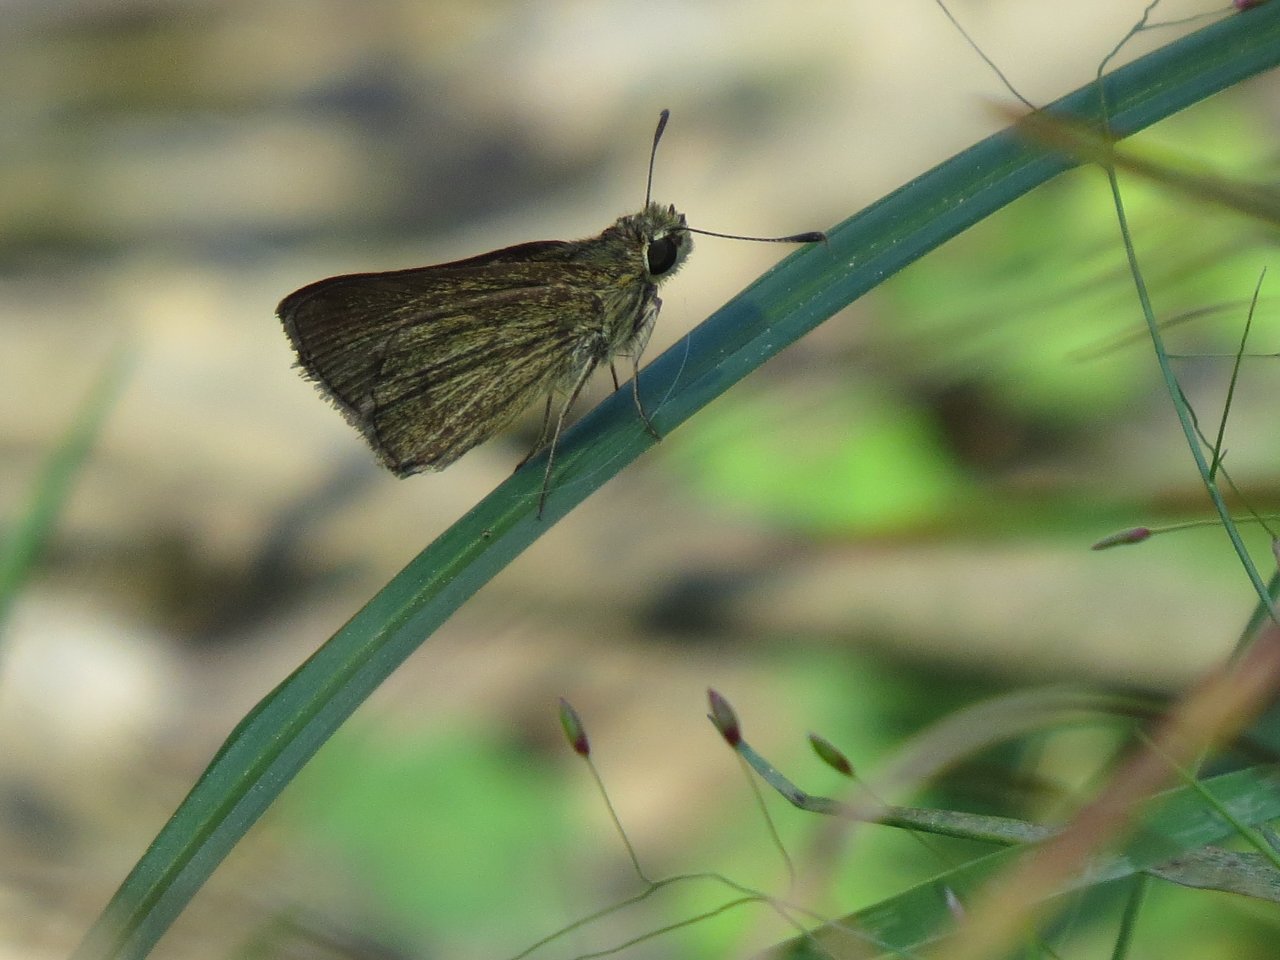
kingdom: Animalia
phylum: Arthropoda
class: Insecta
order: Lepidoptera
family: Hesperiidae
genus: Nastra
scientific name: Nastra lherminier
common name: Swarthy Skipper
